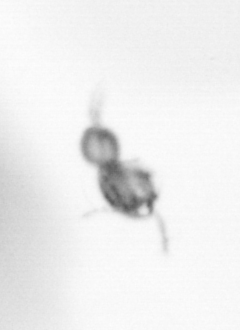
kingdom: Animalia
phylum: Arthropoda
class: Copepoda
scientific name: Copepoda
